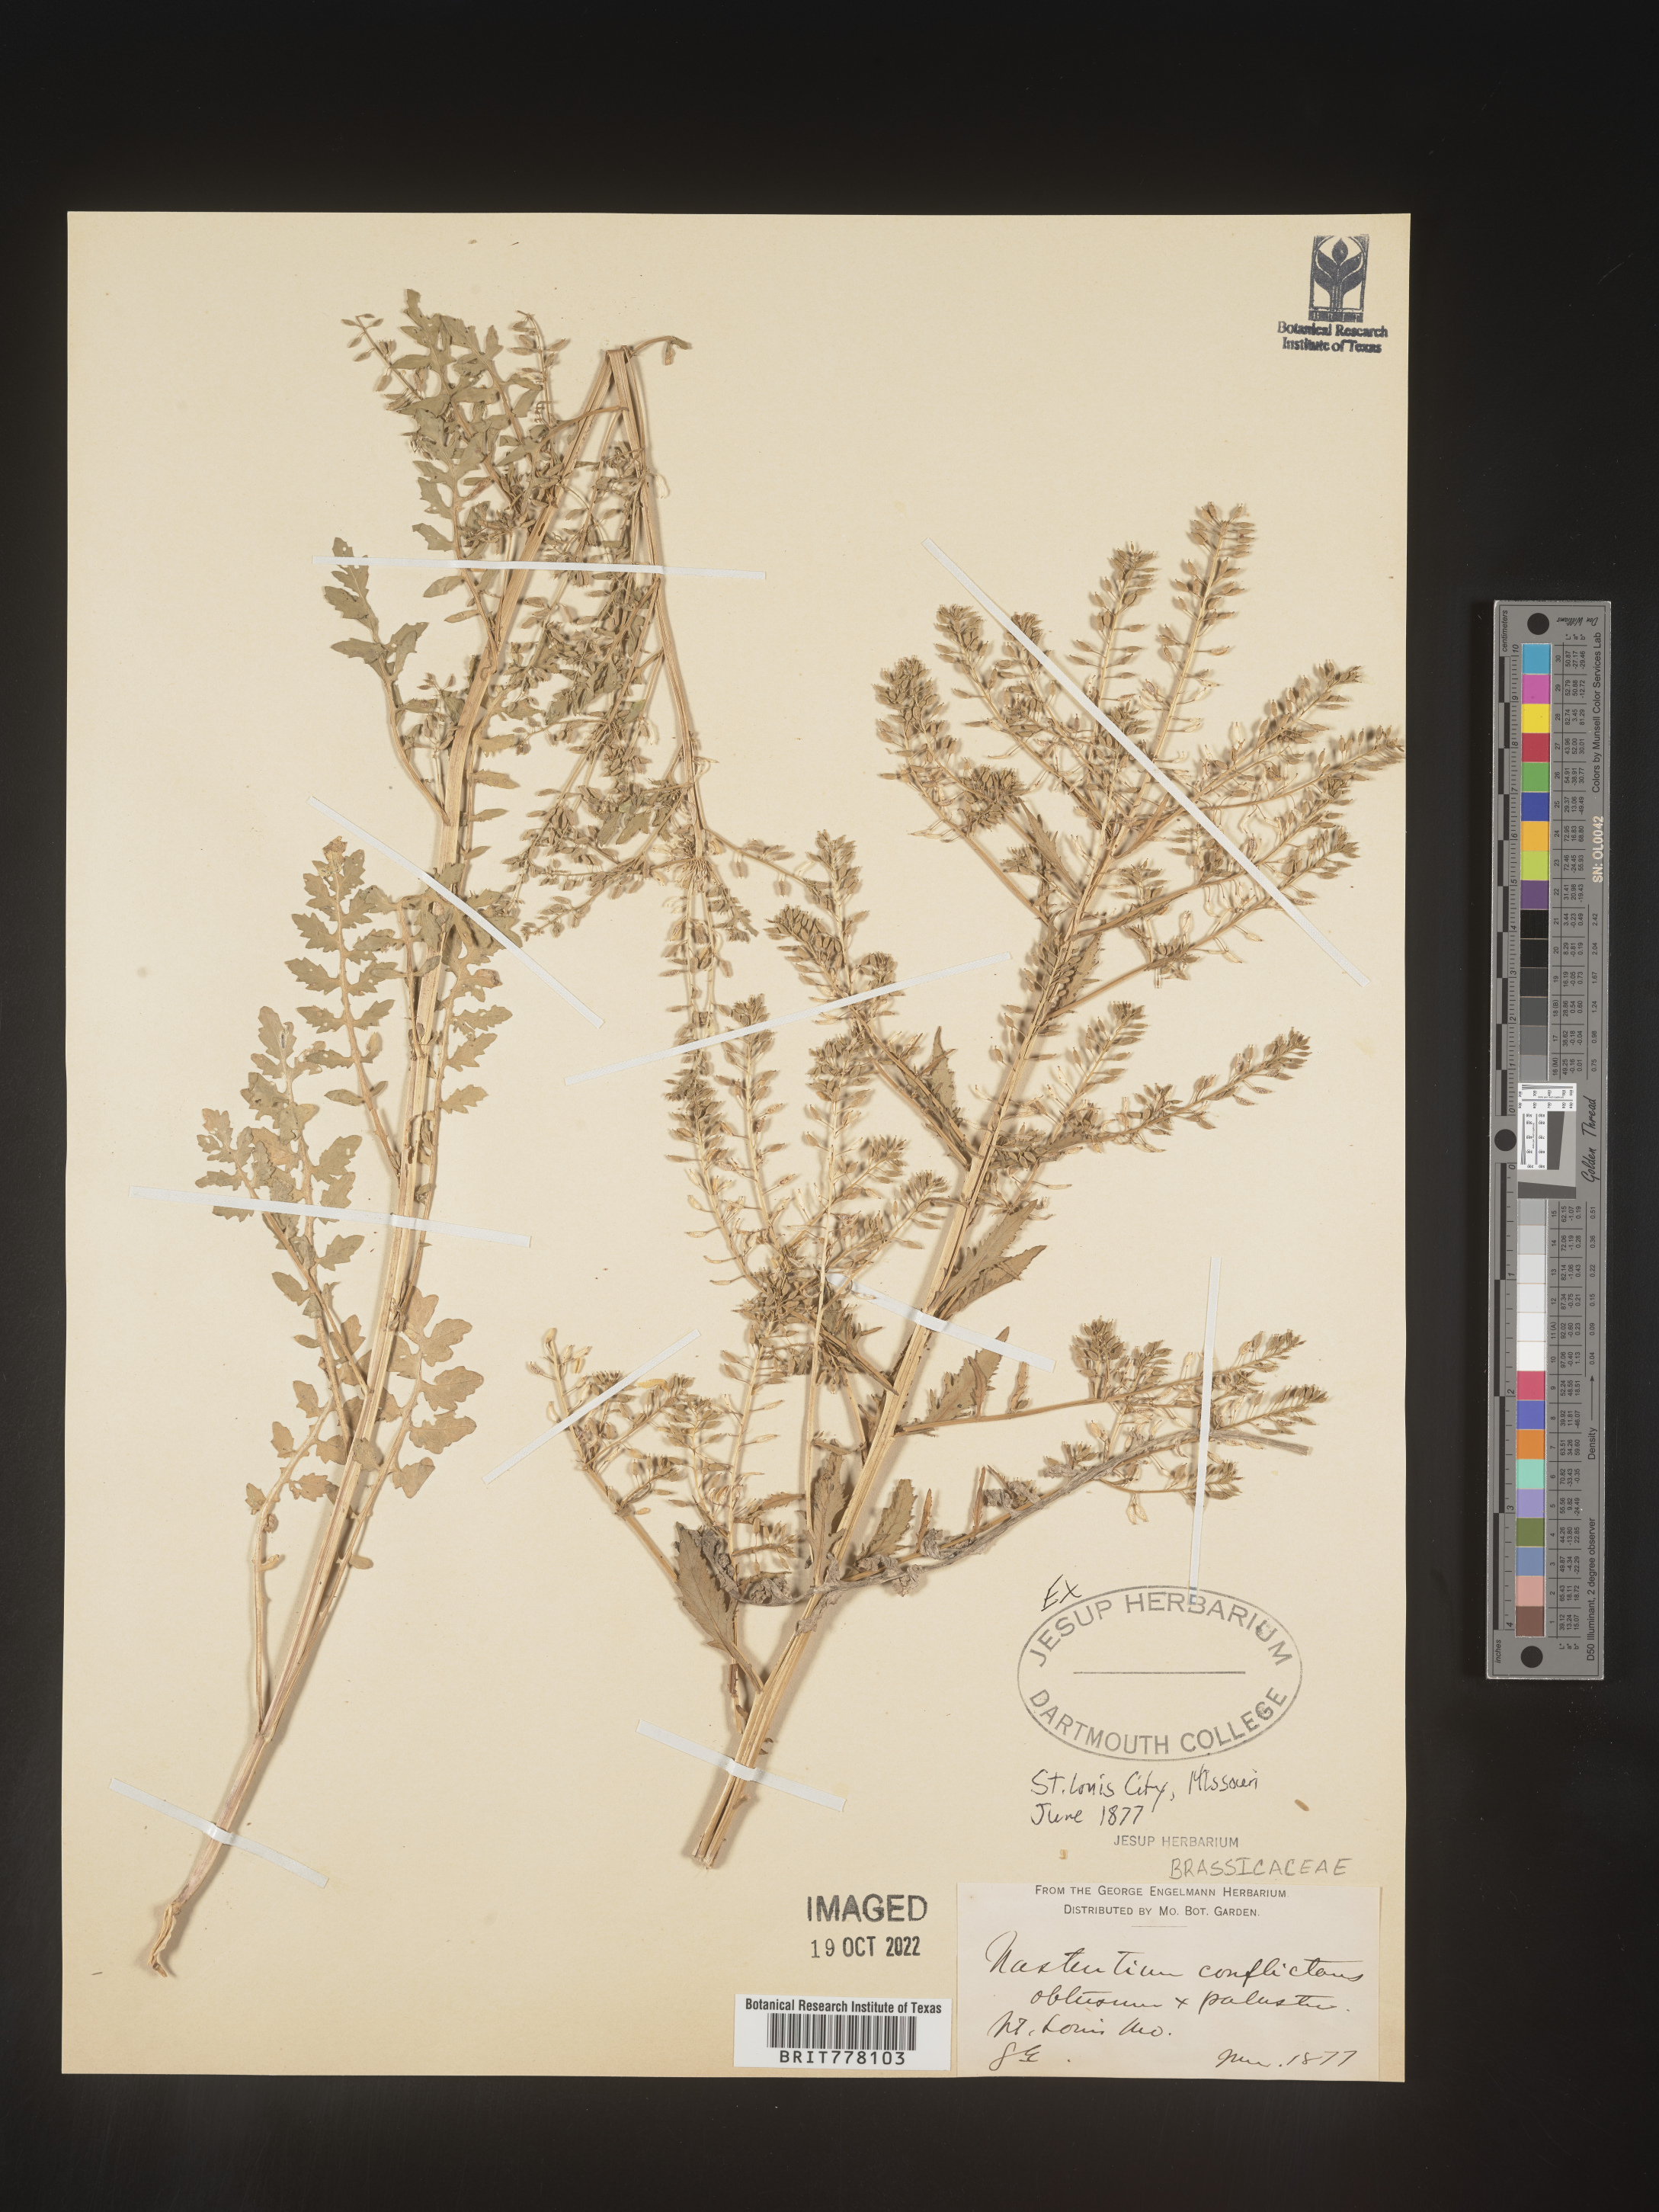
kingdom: Plantae
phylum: Tracheophyta
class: Magnoliopsida
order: Brassicales
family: Brassicaceae
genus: Nasturtium
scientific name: Nasturtium
